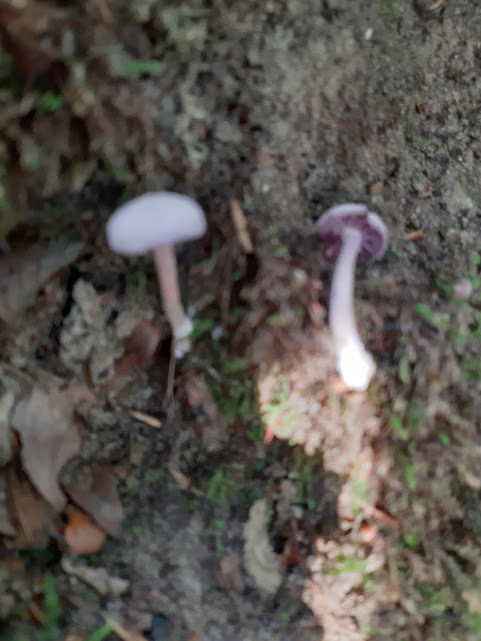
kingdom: Fungi
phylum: Basidiomycota
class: Agaricomycetes
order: Agaricales
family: Hydnangiaceae
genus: Laccaria
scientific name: Laccaria amethystina
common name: violet ametysthat
